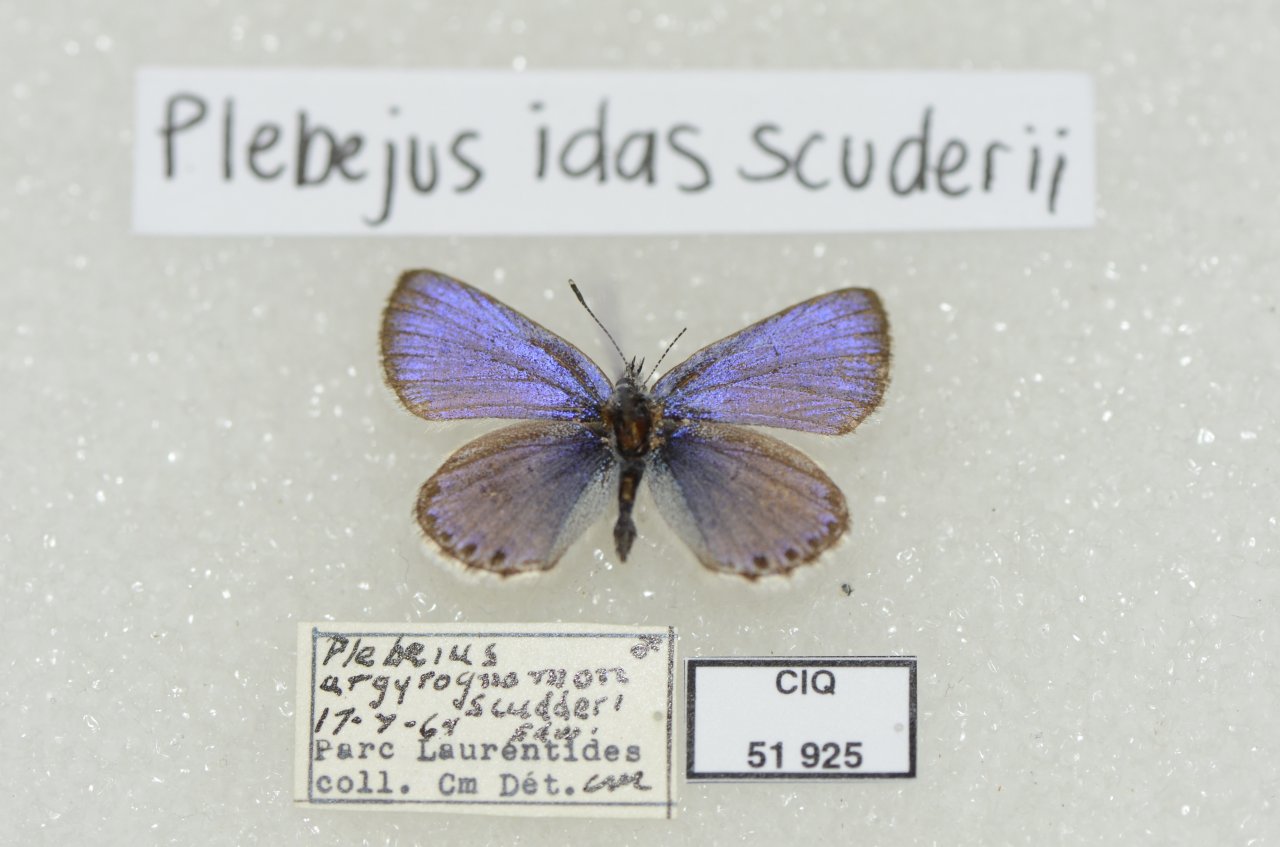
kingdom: Animalia
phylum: Arthropoda
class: Insecta
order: Lepidoptera
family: Lycaenidae
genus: Lycaeides
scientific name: Lycaeides idas
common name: Northern Blue
